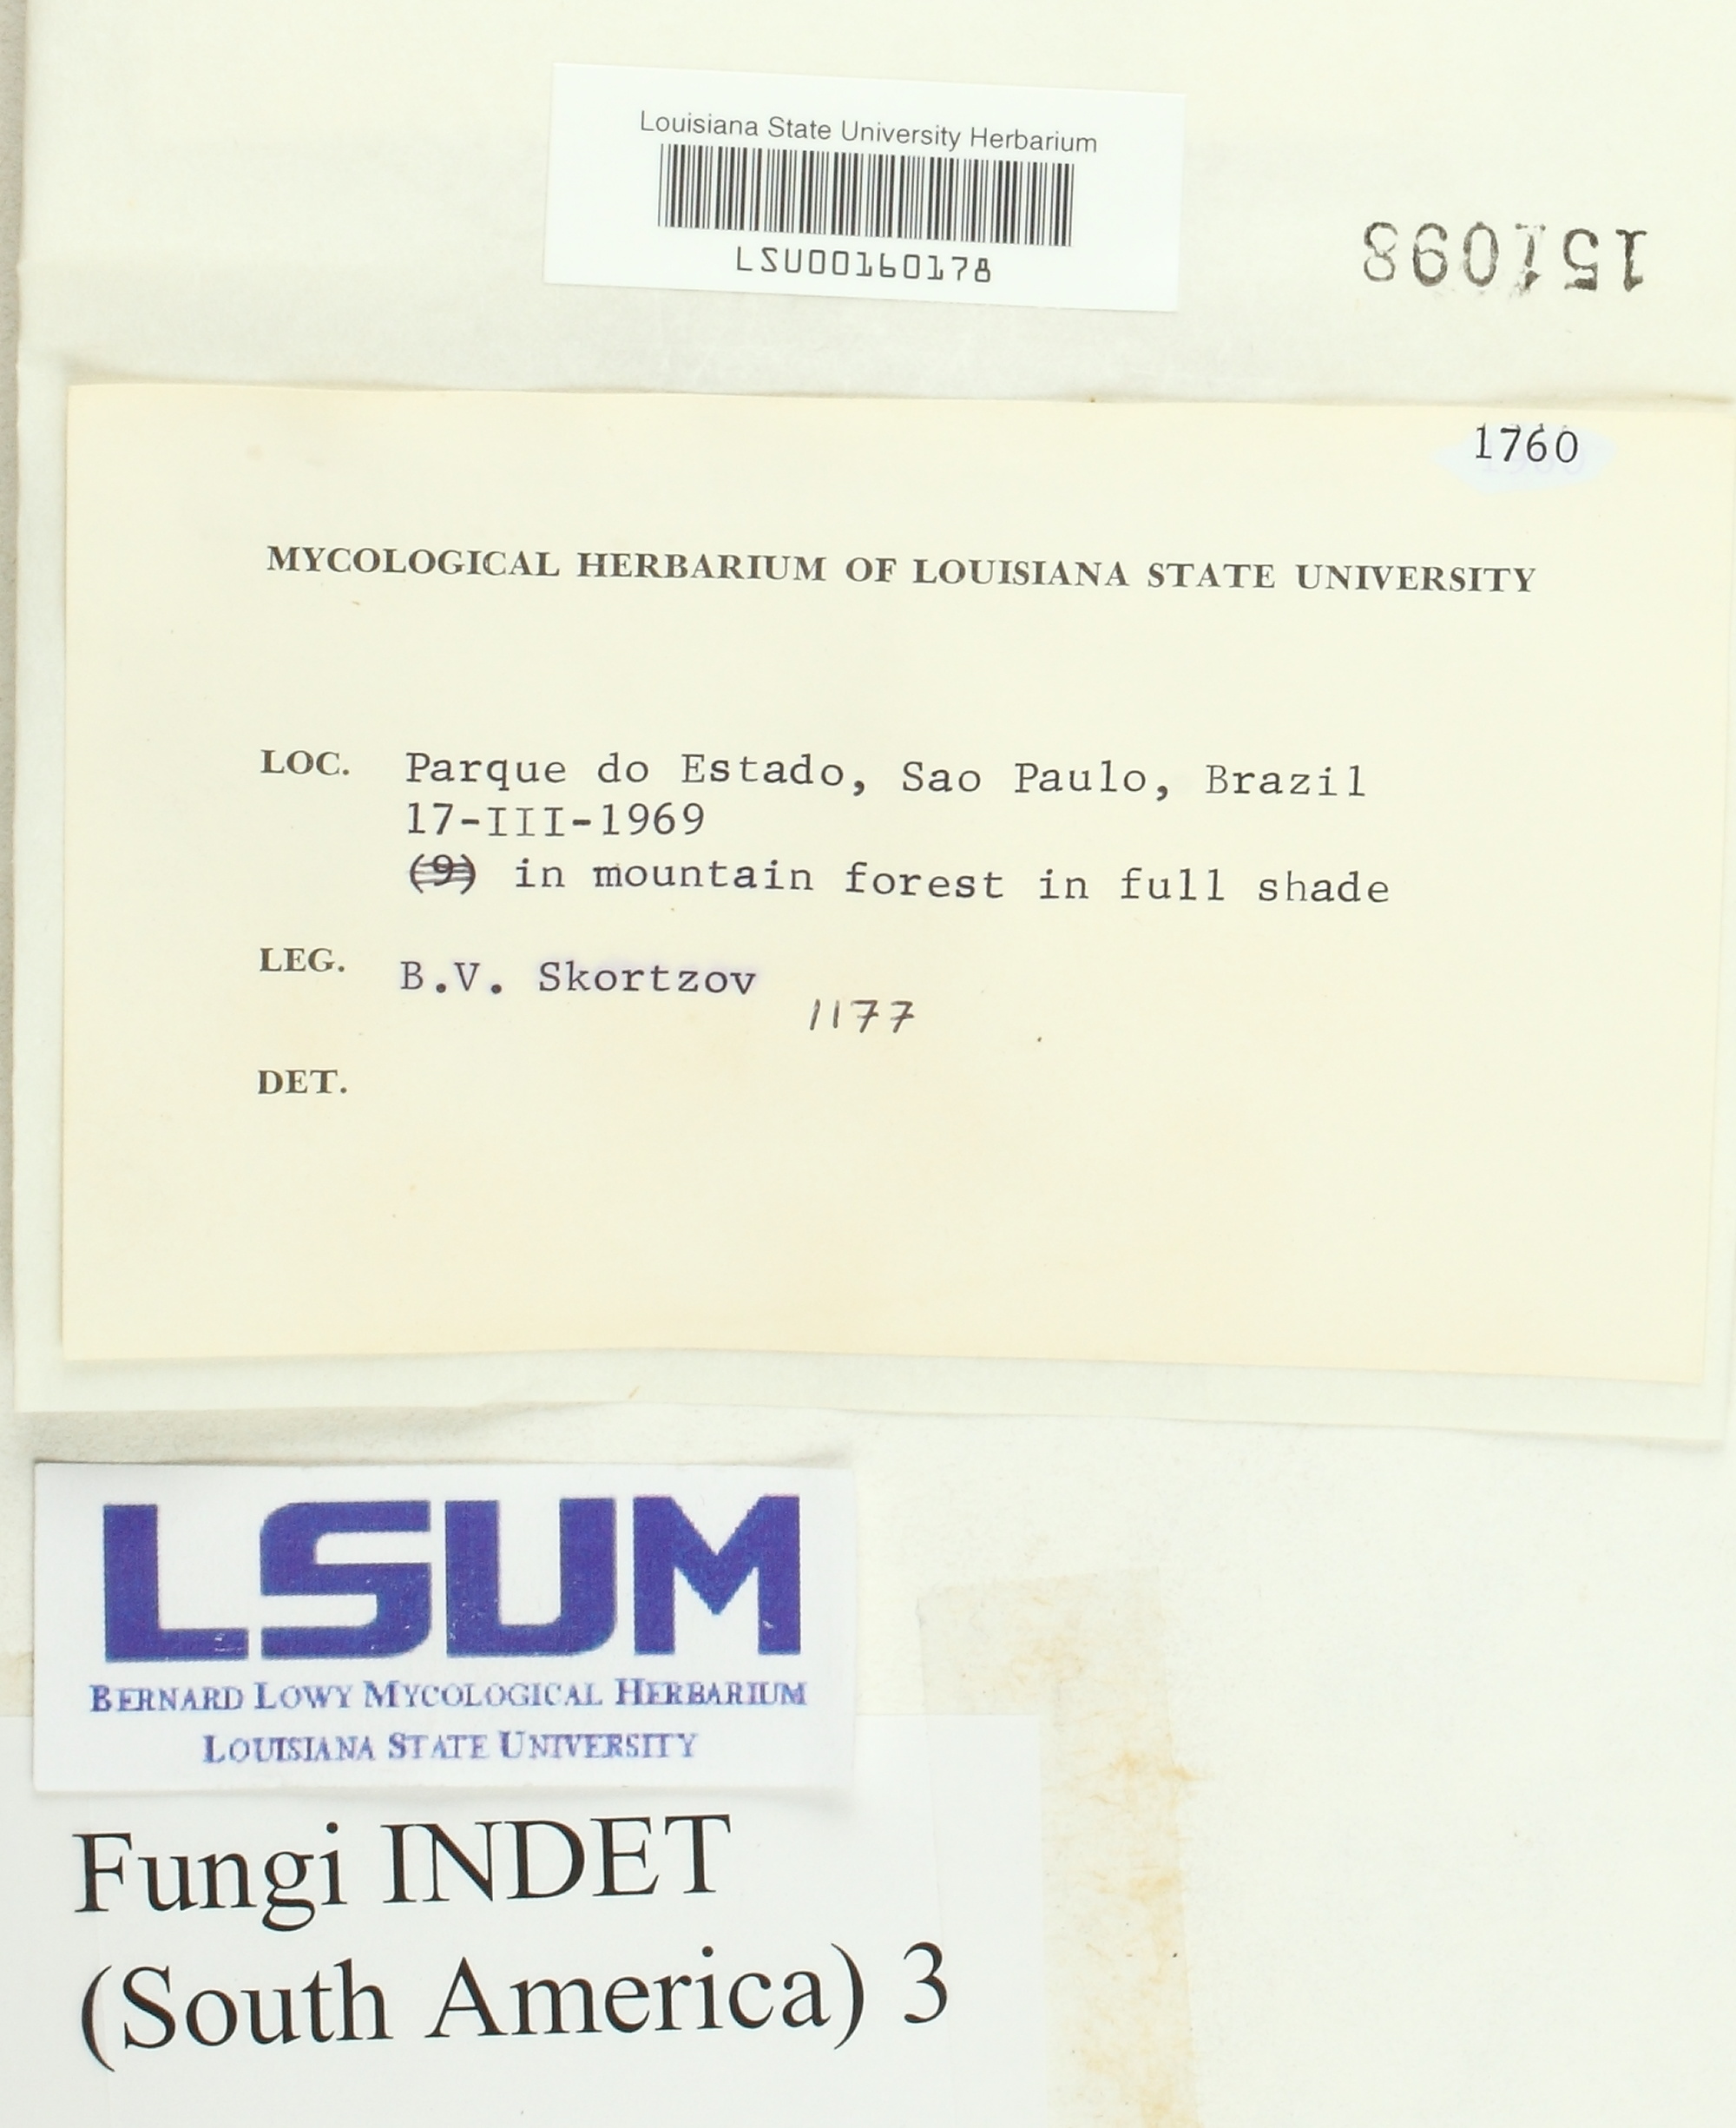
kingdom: Fungi
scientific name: Fungi
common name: Fungi
